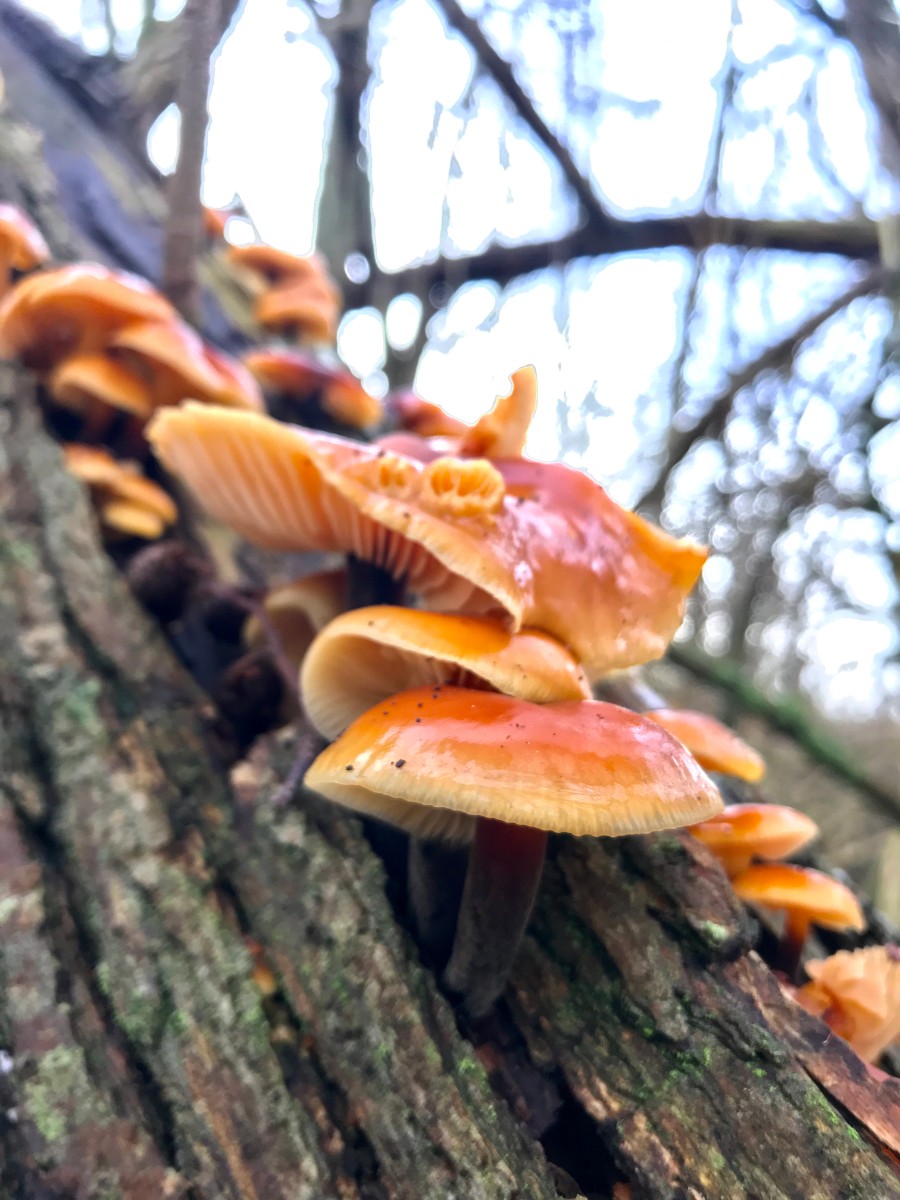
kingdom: Fungi
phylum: Basidiomycota
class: Agaricomycetes
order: Agaricales
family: Physalacriaceae
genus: Flammulina
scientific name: Flammulina
